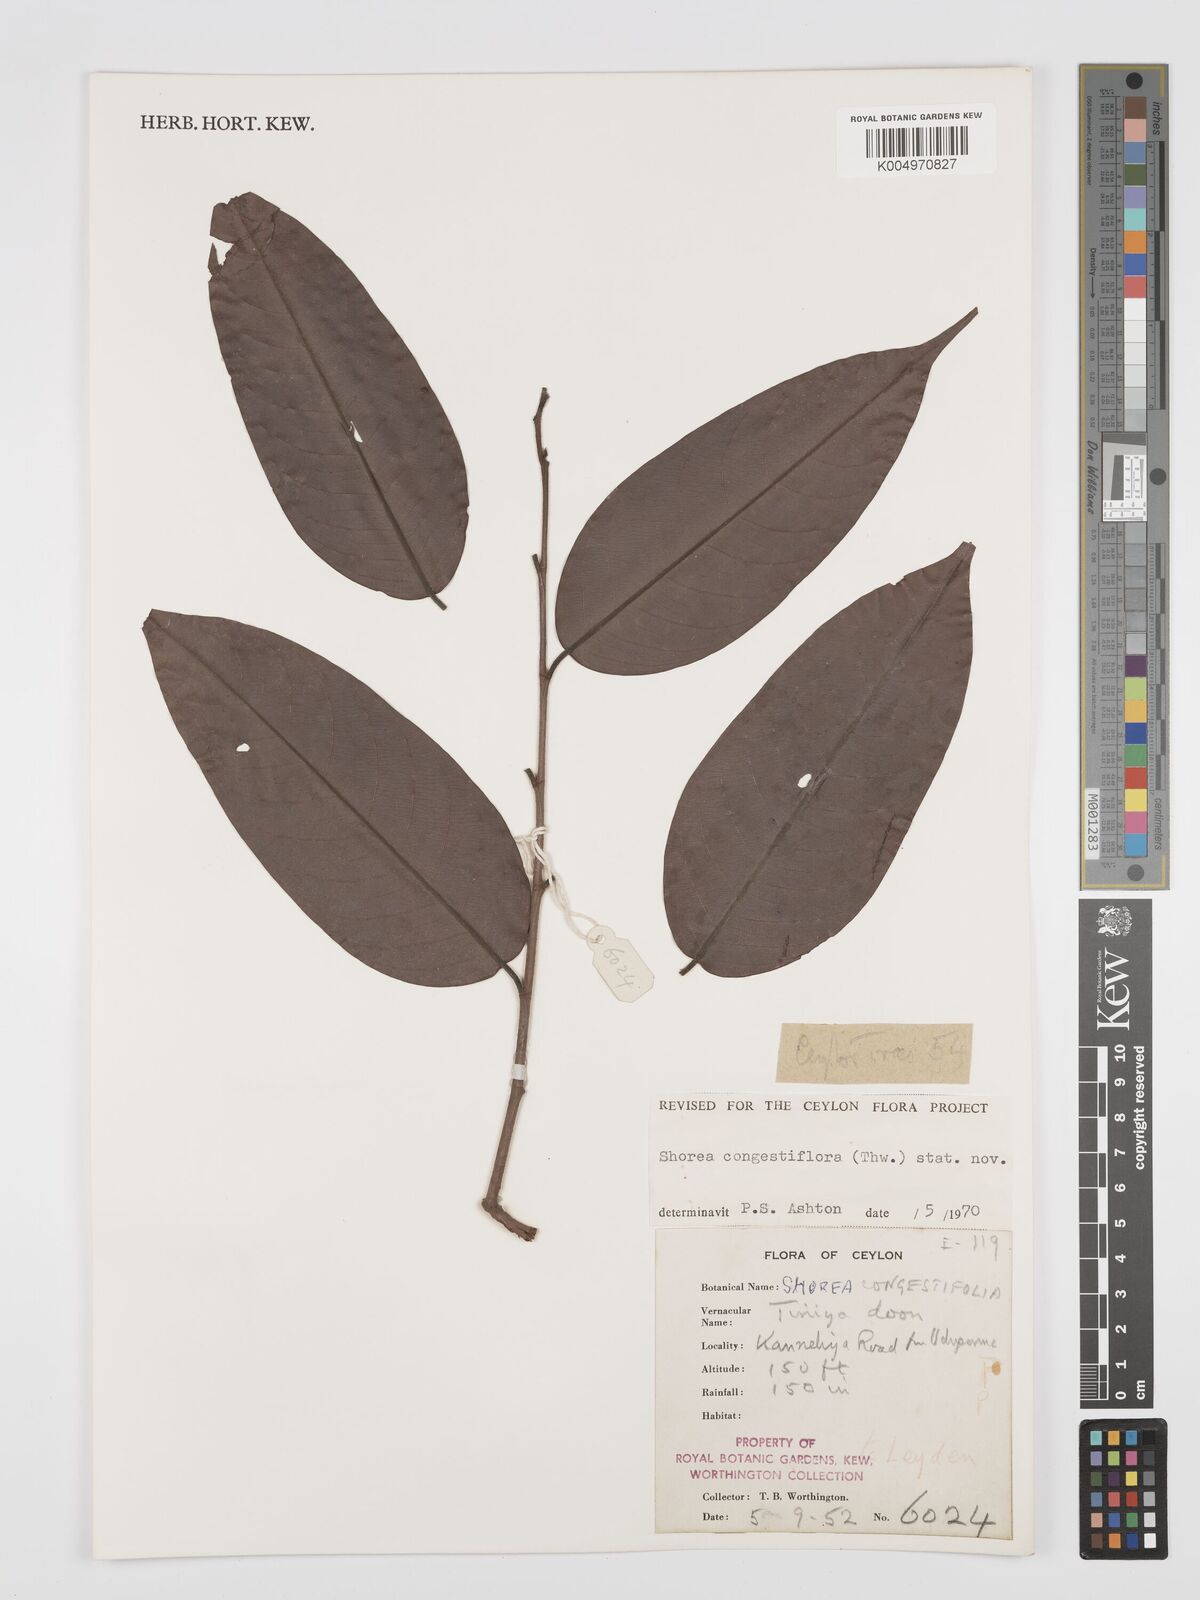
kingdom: Plantae
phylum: Tracheophyta
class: Magnoliopsida
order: Malvales
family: Dipterocarpaceae
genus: Doona
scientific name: Doona congestiflora
